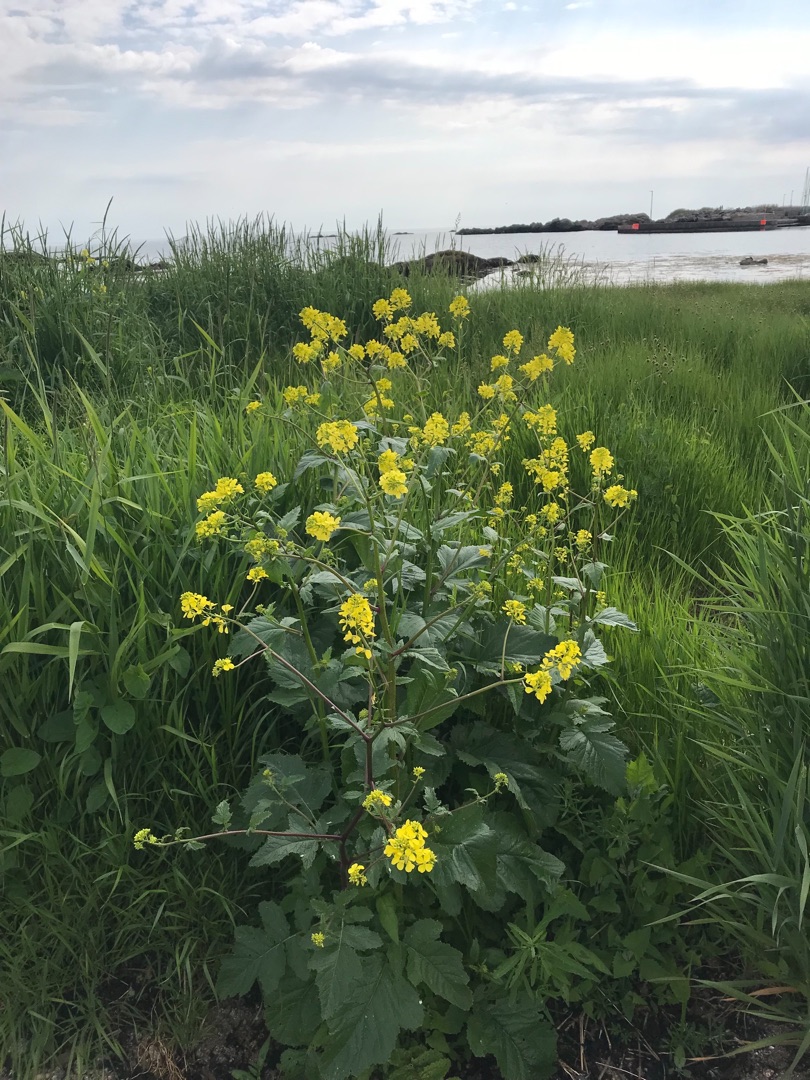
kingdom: Plantae
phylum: Tracheophyta
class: Magnoliopsida
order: Brassicales
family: Brassicaceae
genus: Sinapis
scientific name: Sinapis arvensis
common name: Ager-sennep
